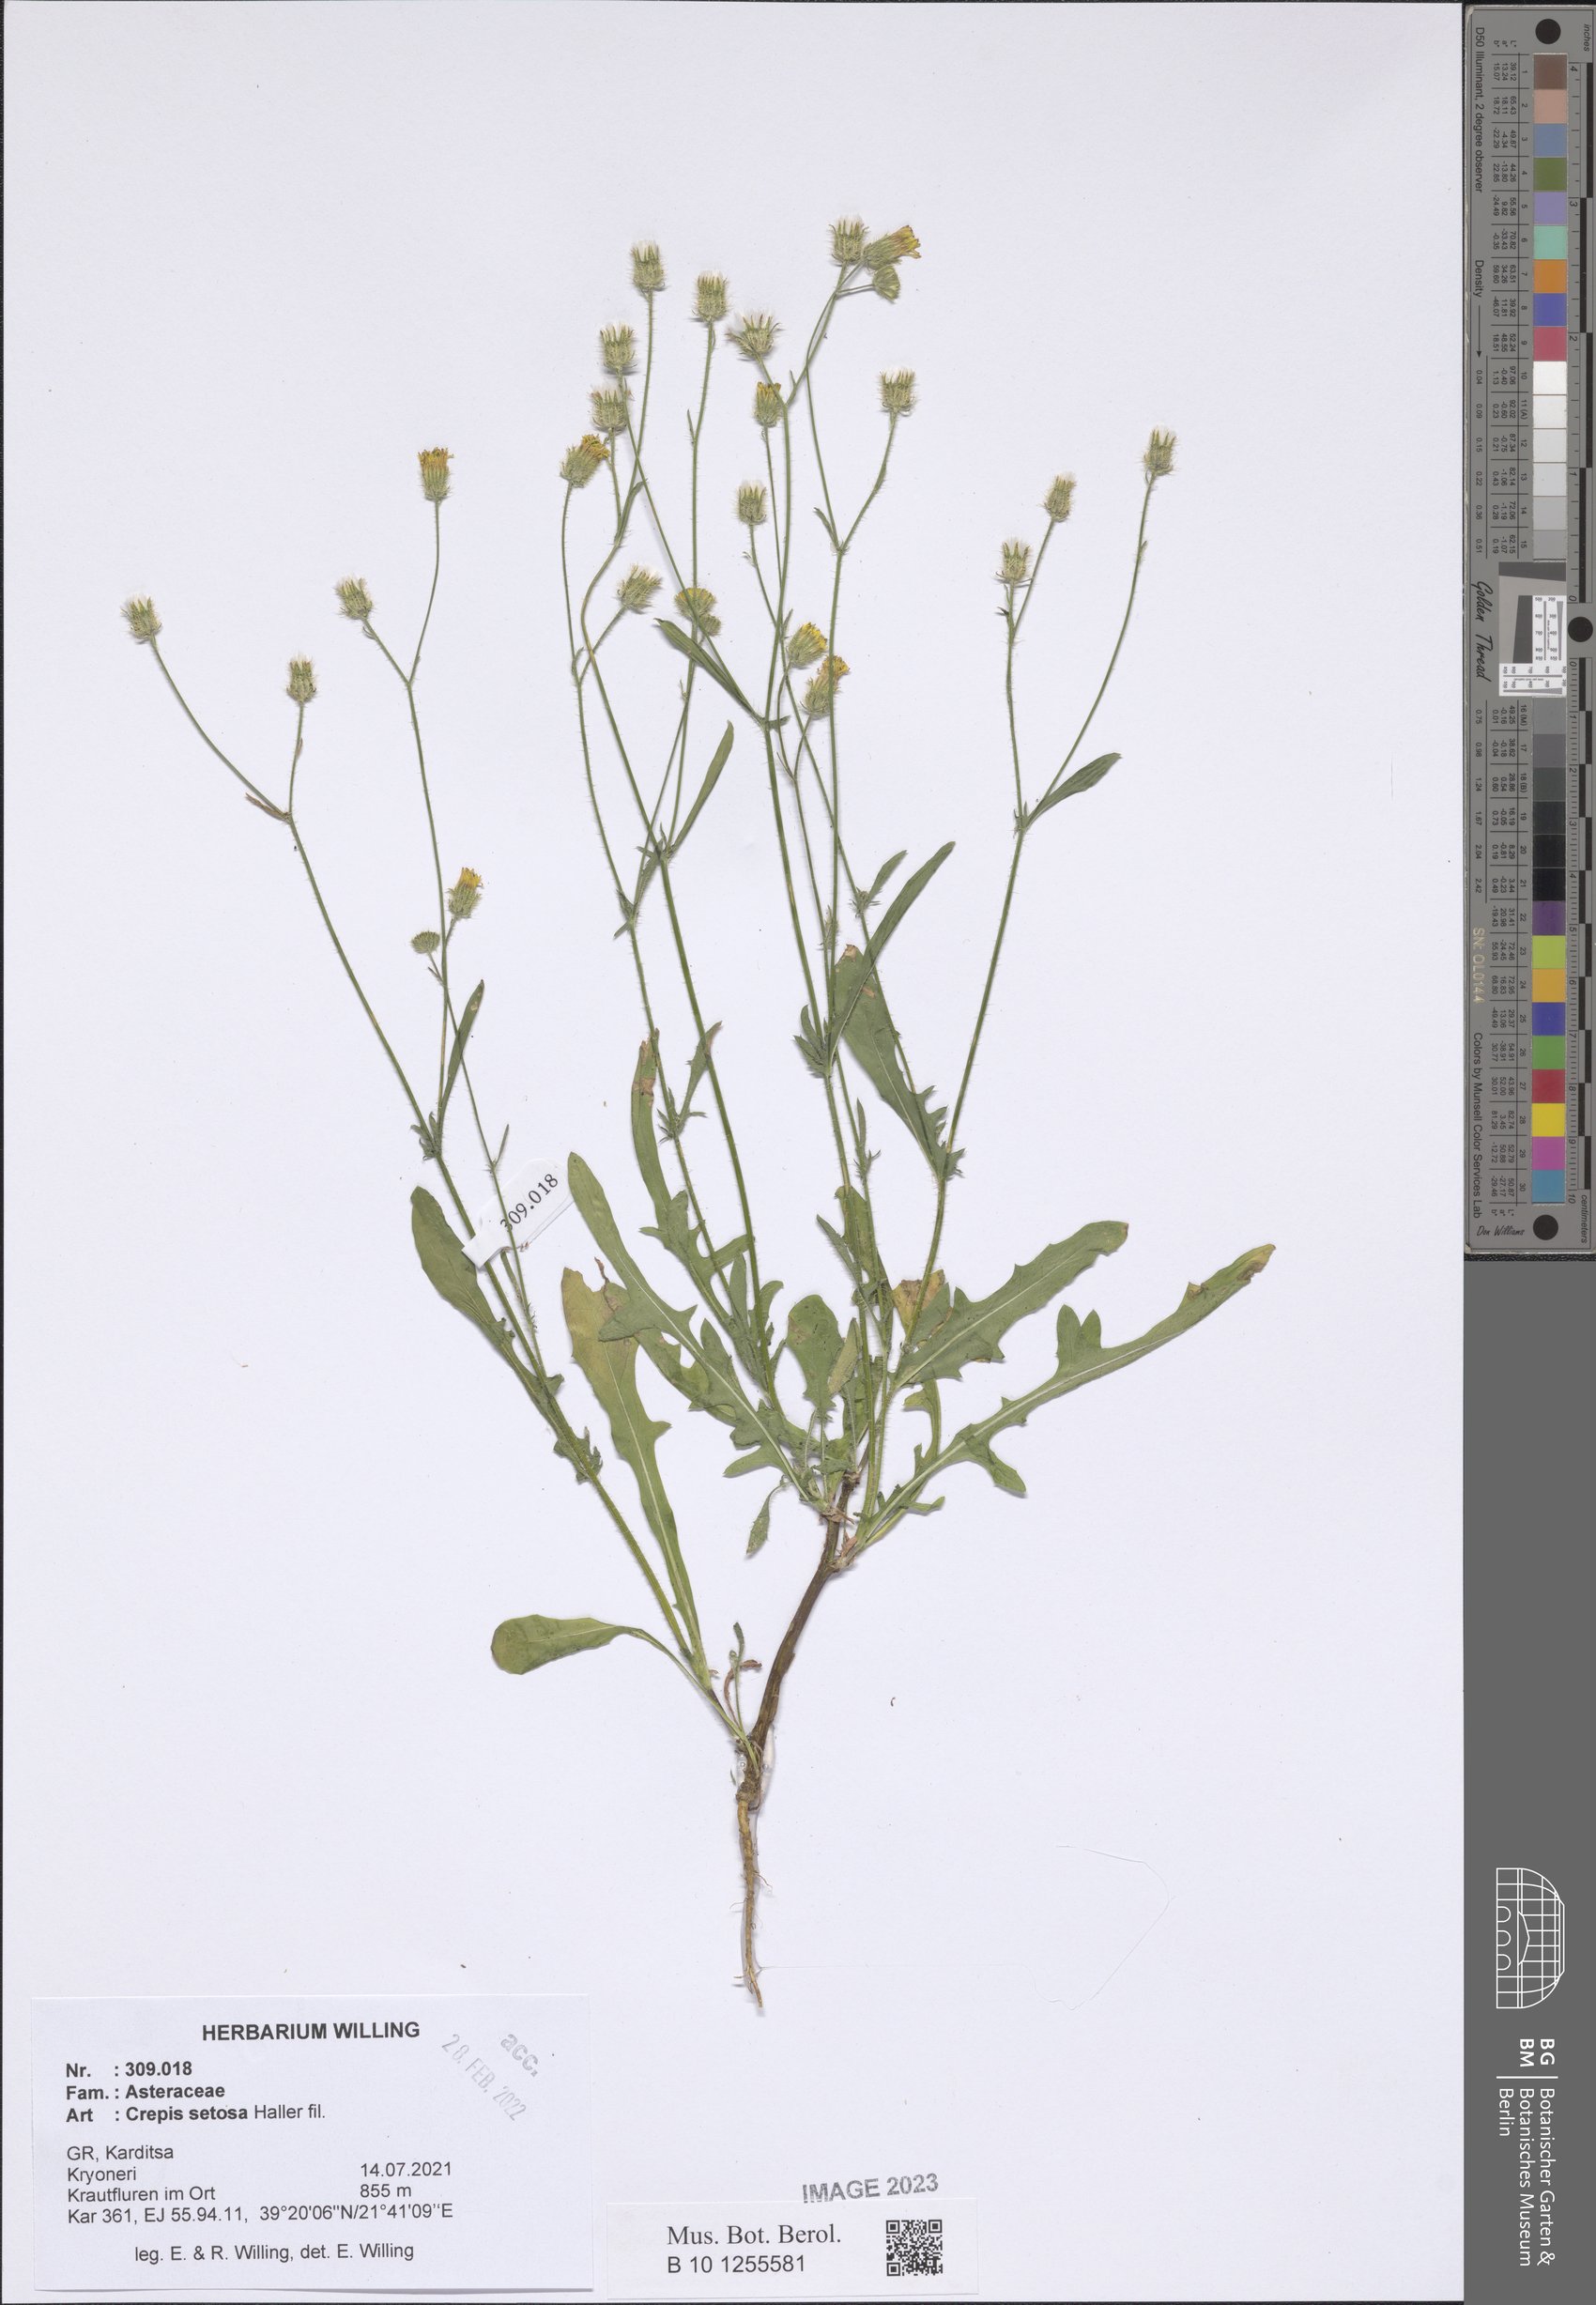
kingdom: Plantae
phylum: Tracheophyta
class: Magnoliopsida
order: Asterales
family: Asteraceae
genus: Crepis
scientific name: Crepis setosa
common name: Bristly hawk's-beard
